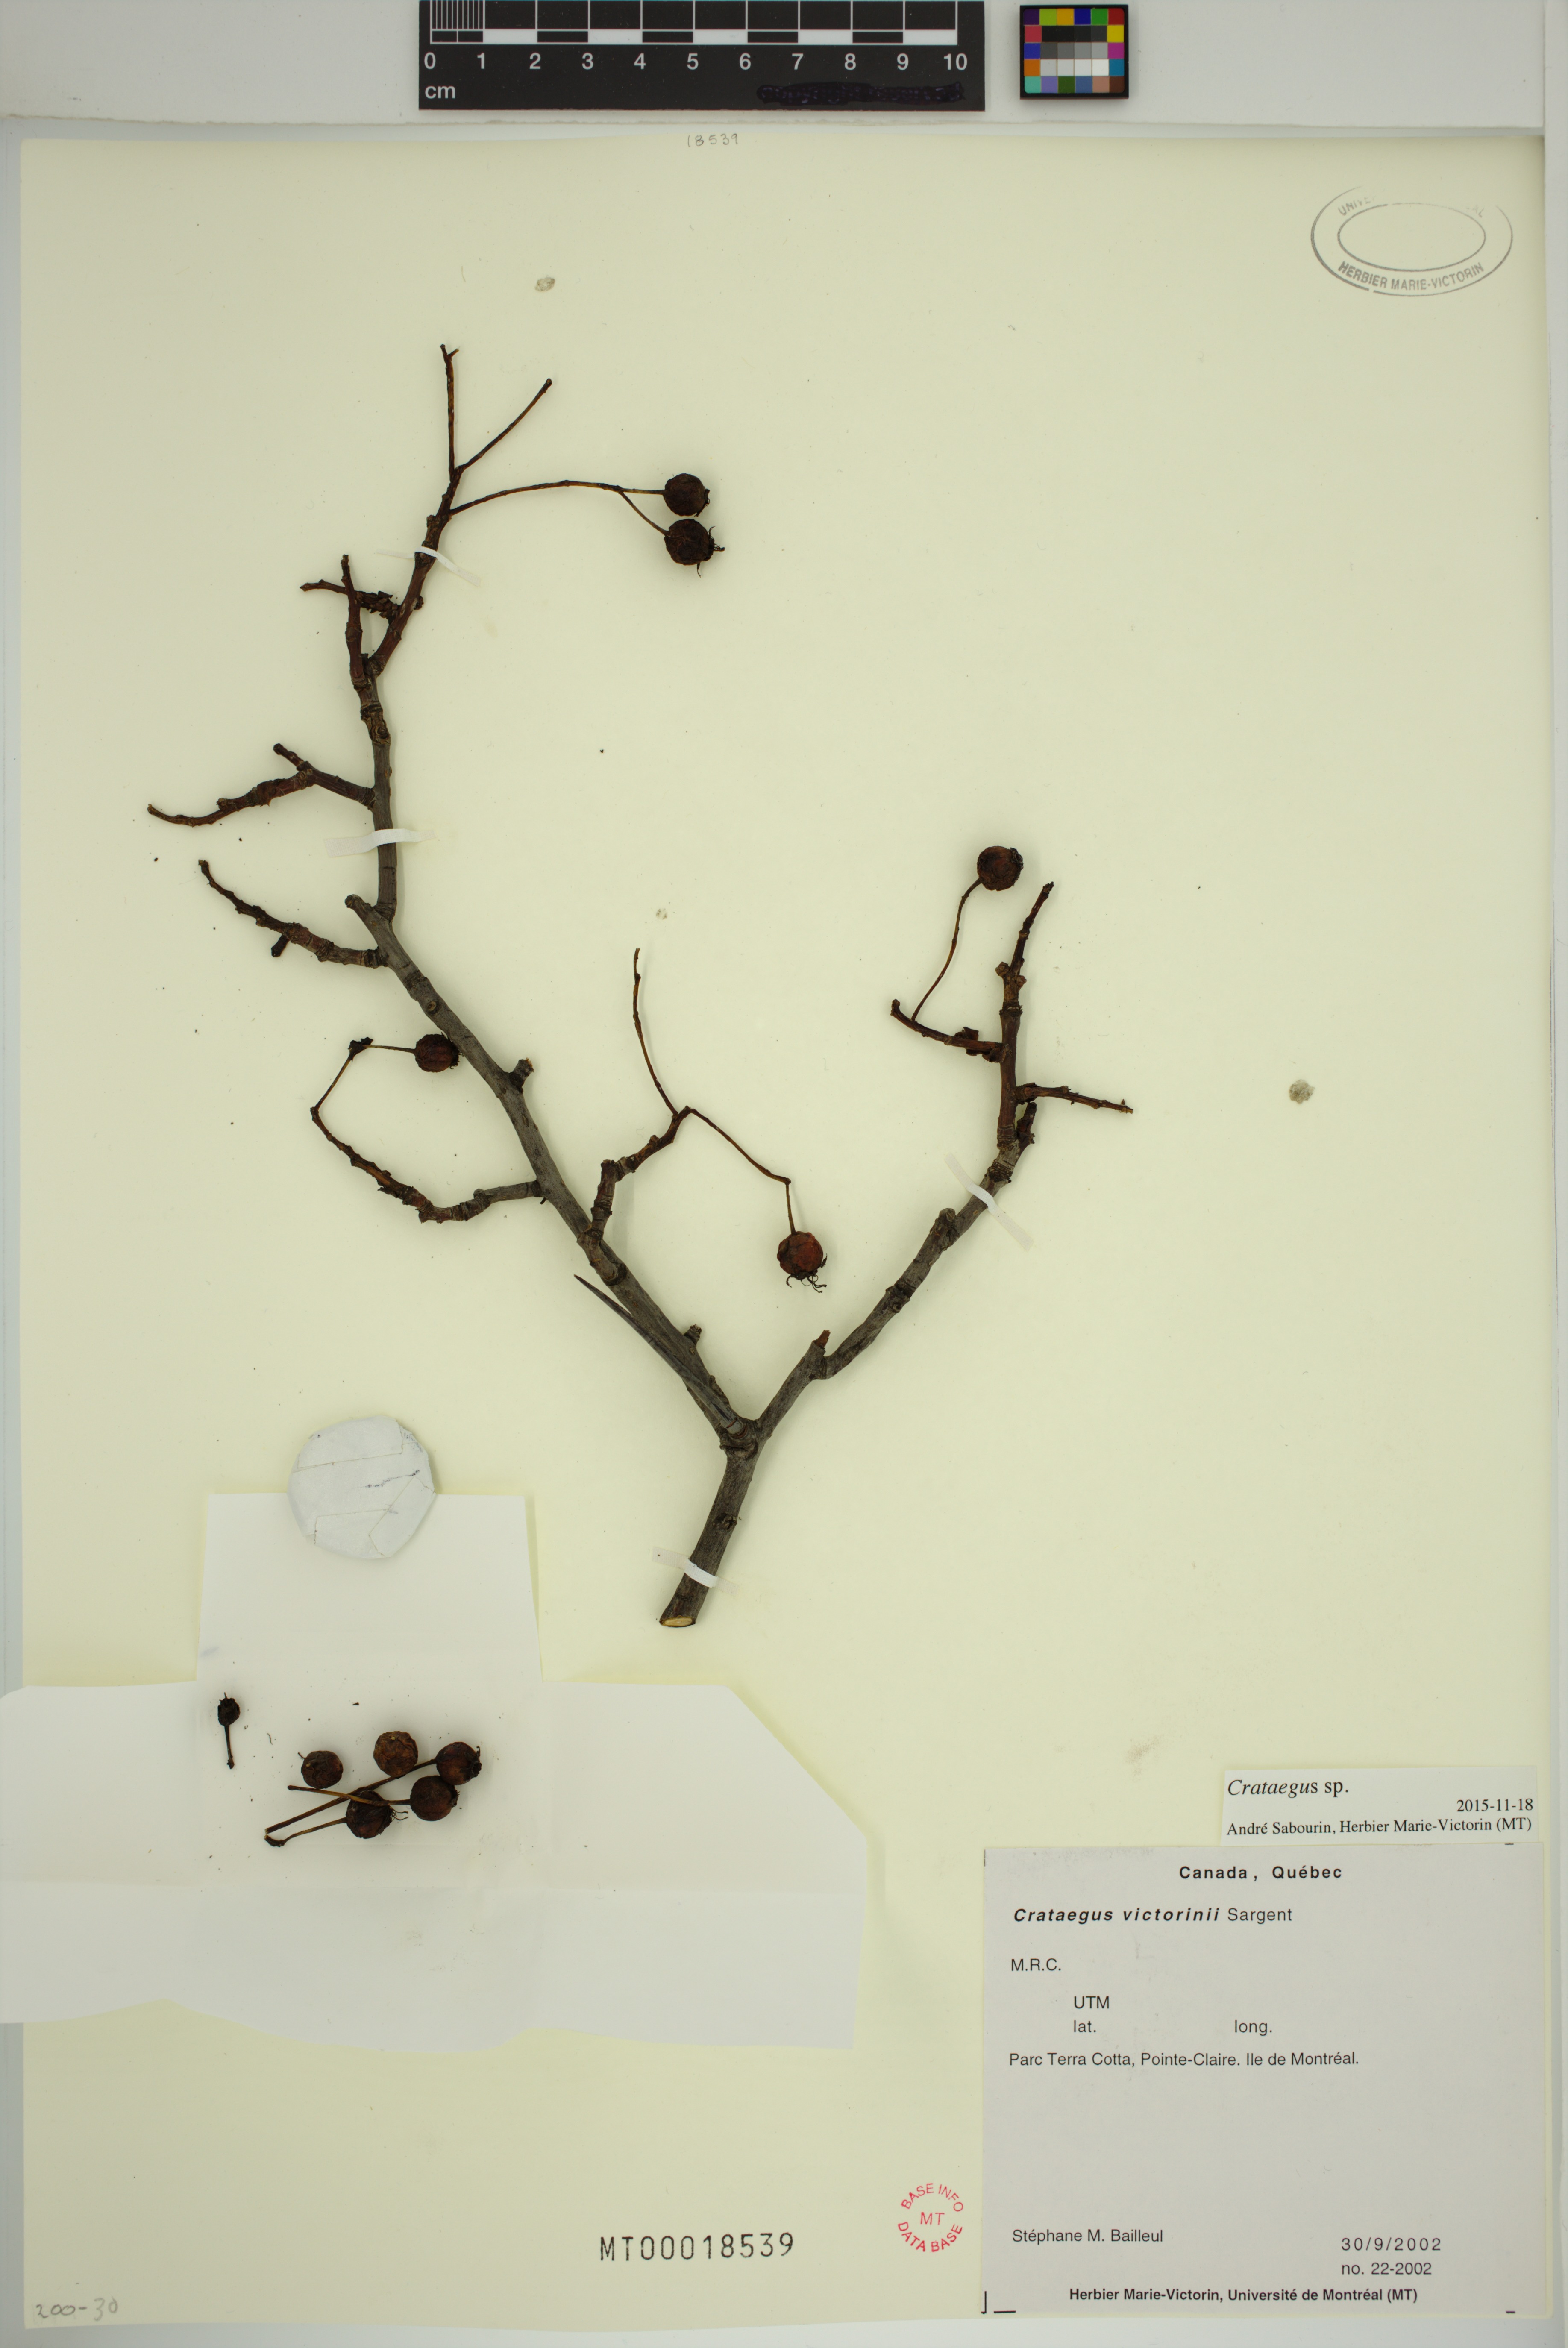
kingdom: Plantae
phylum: Tracheophyta
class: Magnoliopsida
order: Rosales
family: Rosaceae
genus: Crataegus
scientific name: Crataegus
